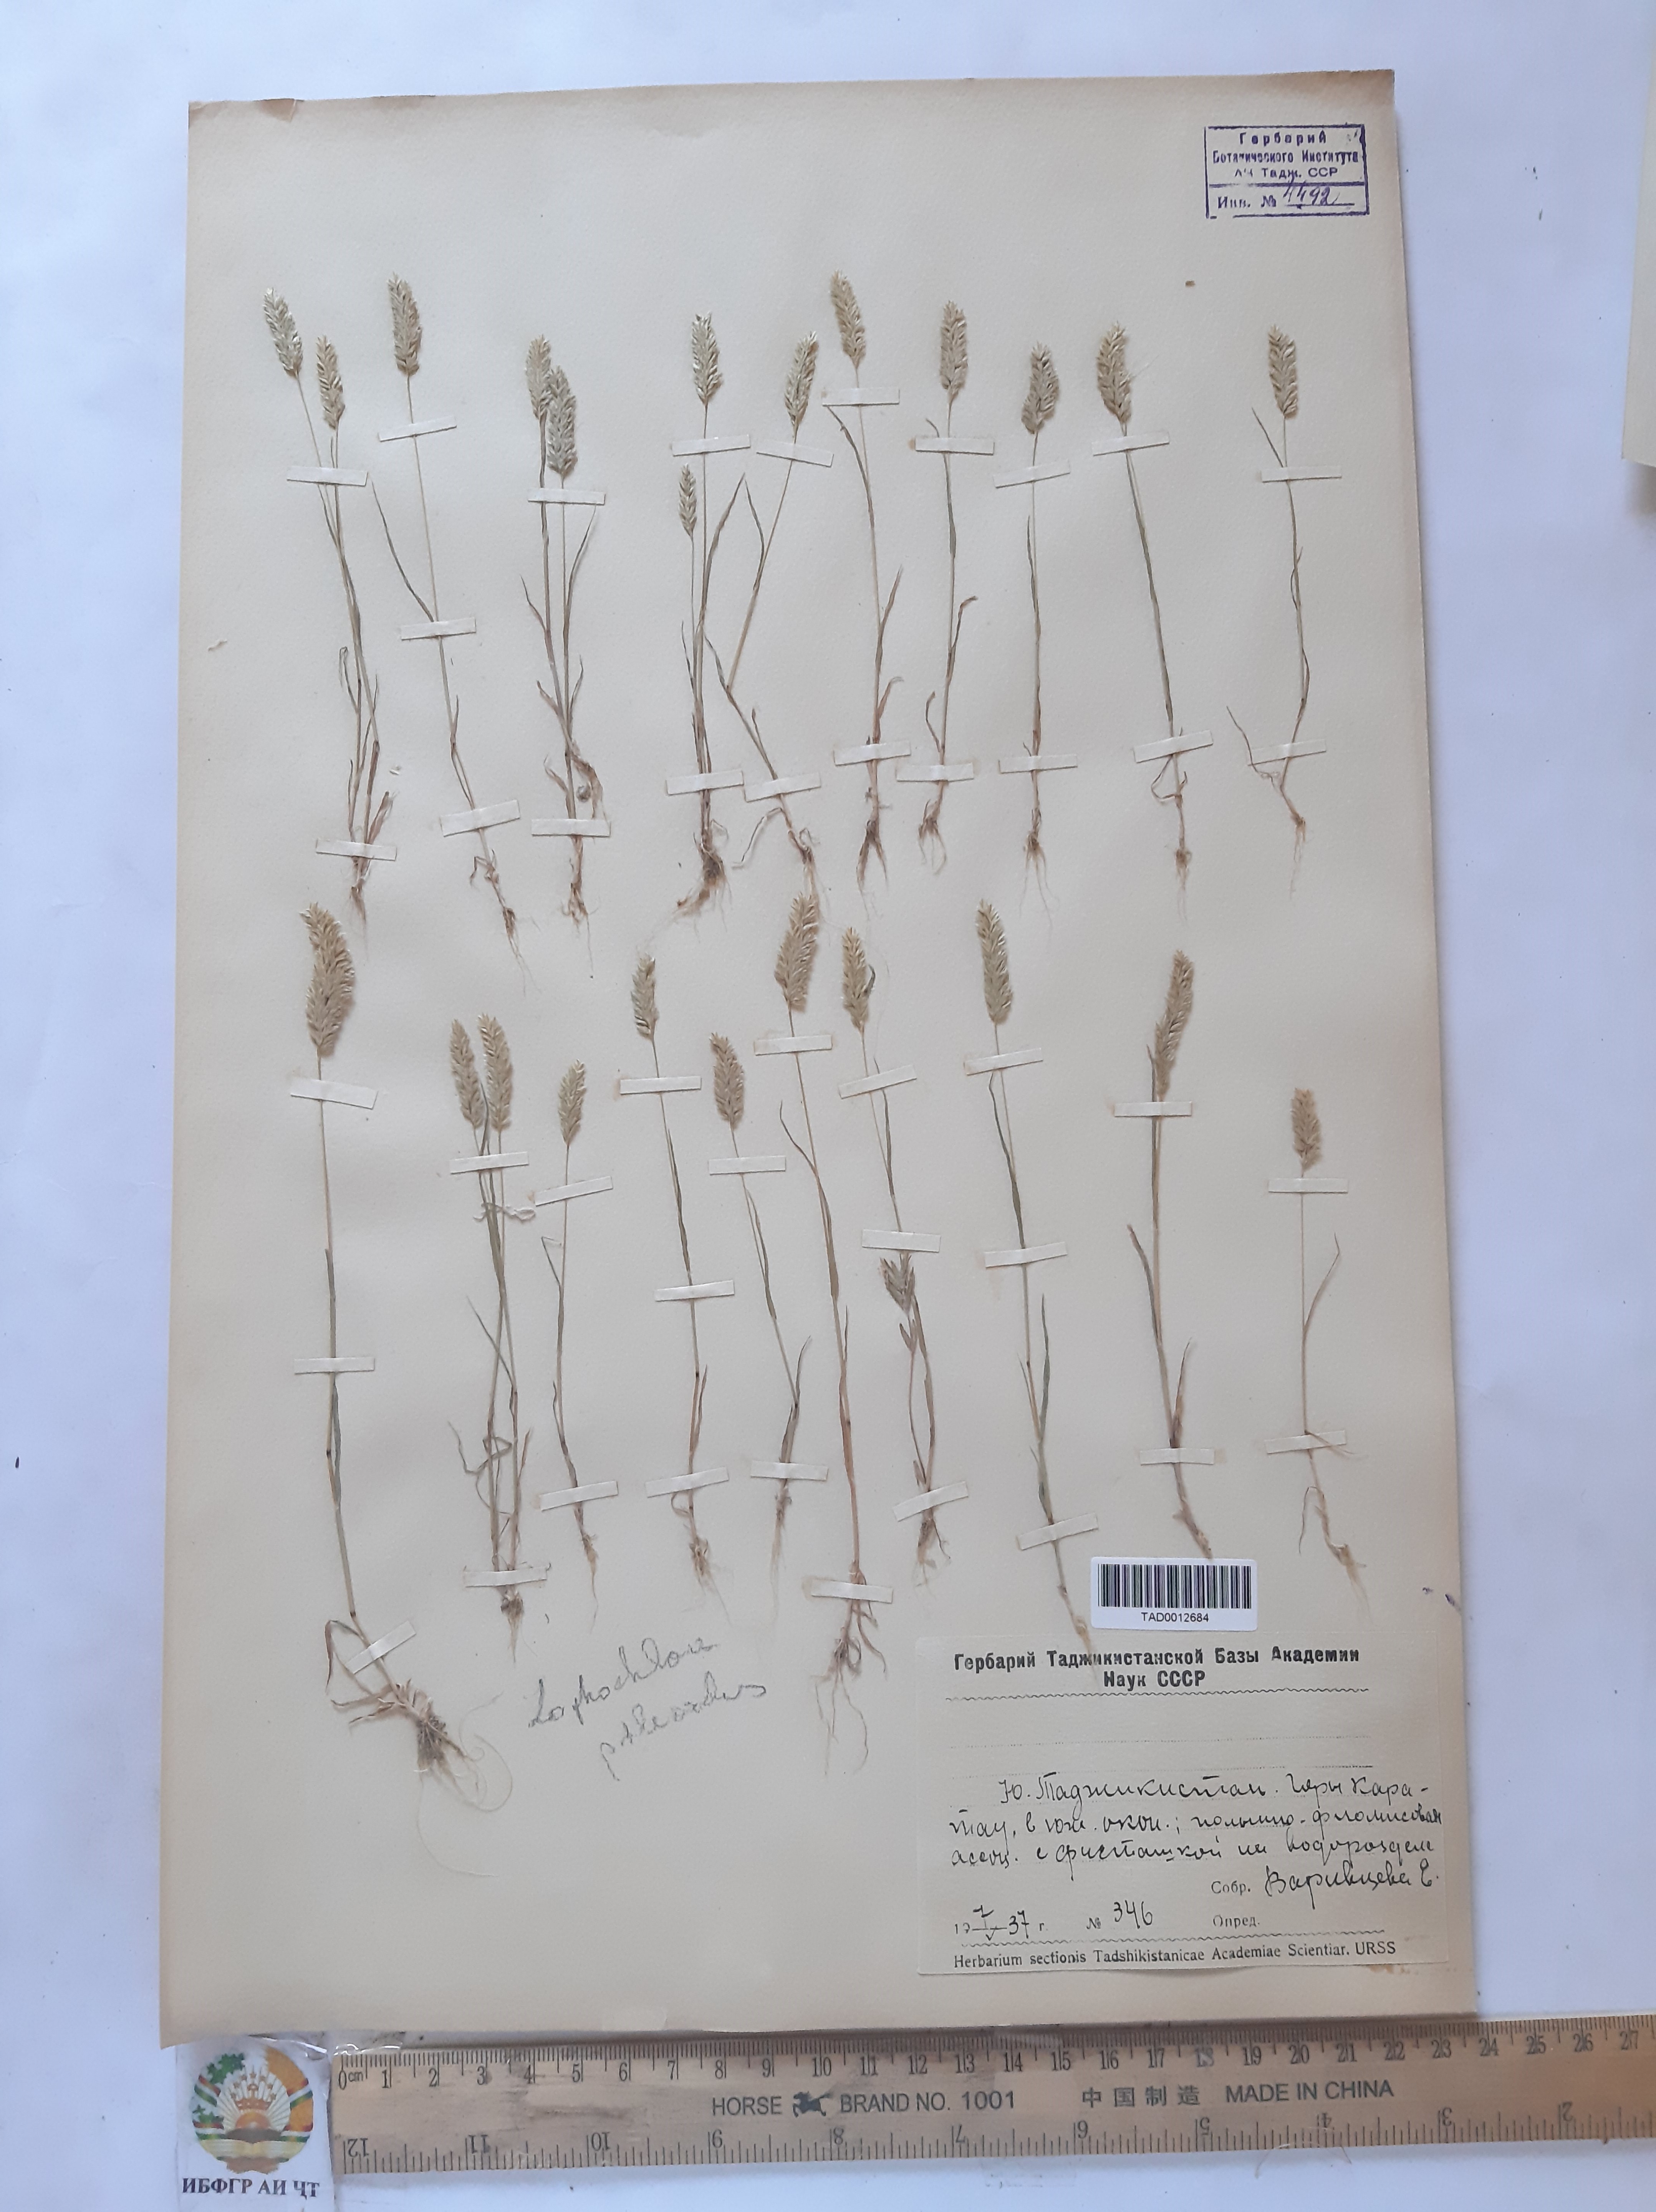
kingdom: Plantae
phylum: Tracheophyta
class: Liliopsida
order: Poales
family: Poaceae
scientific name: Poaceae
